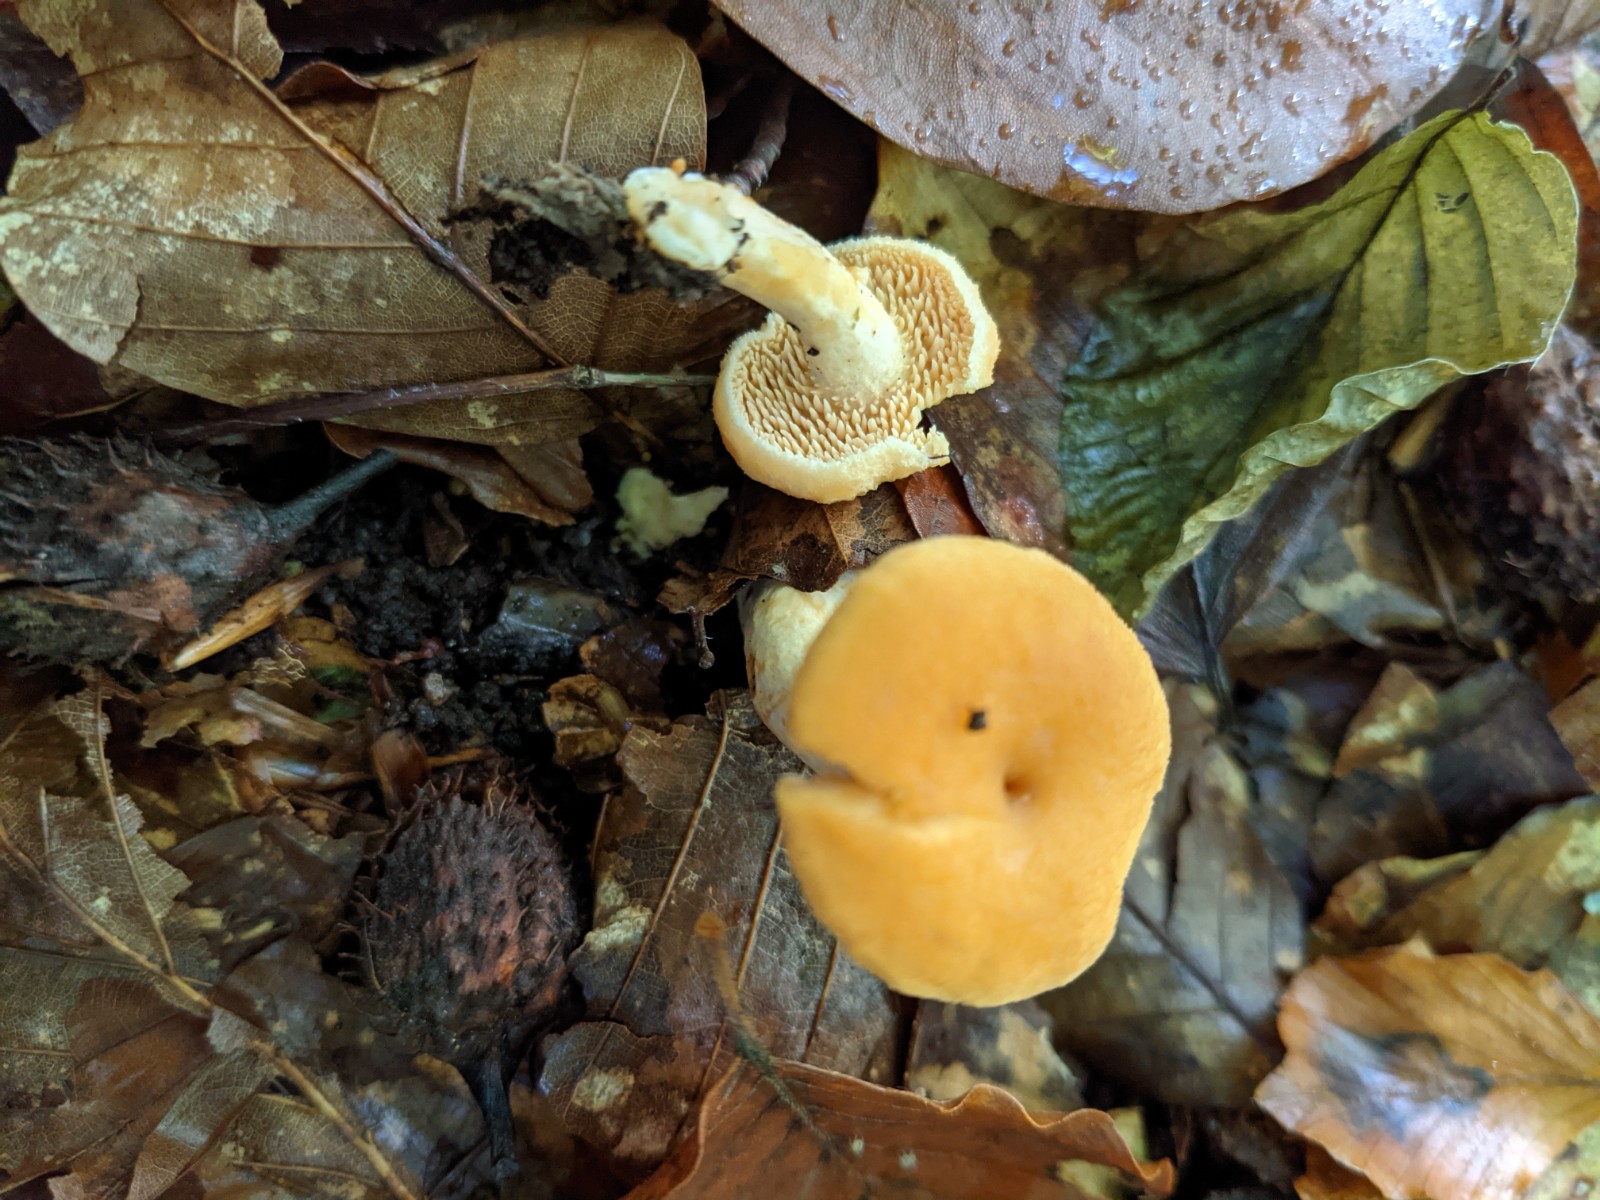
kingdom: Fungi
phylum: Basidiomycota
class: Agaricomycetes
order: Cantharellales
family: Hydnaceae
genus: Hydnum
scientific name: Hydnum umbilicatum
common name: navle-pigsvamp
